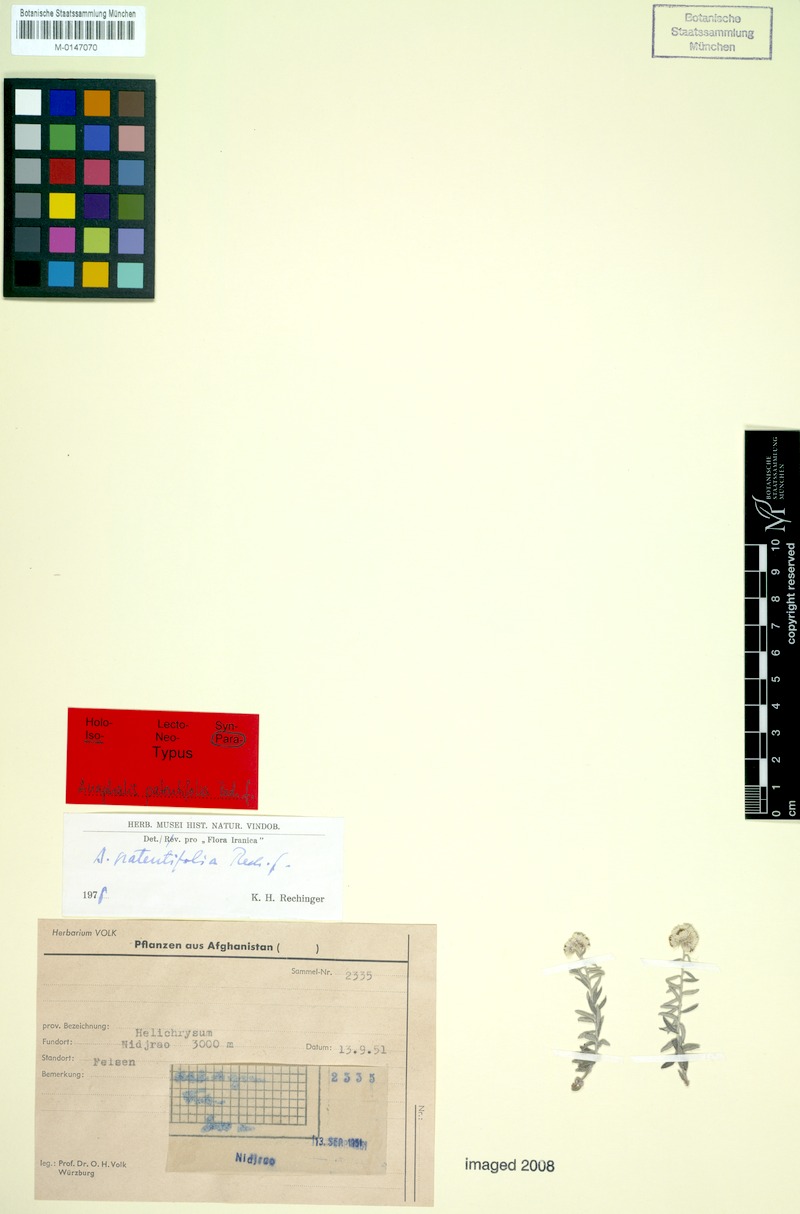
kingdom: Plantae
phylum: Tracheophyta
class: Magnoliopsida
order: Asterales
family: Asteraceae
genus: Anaphalis
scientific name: Anaphalis virgata
